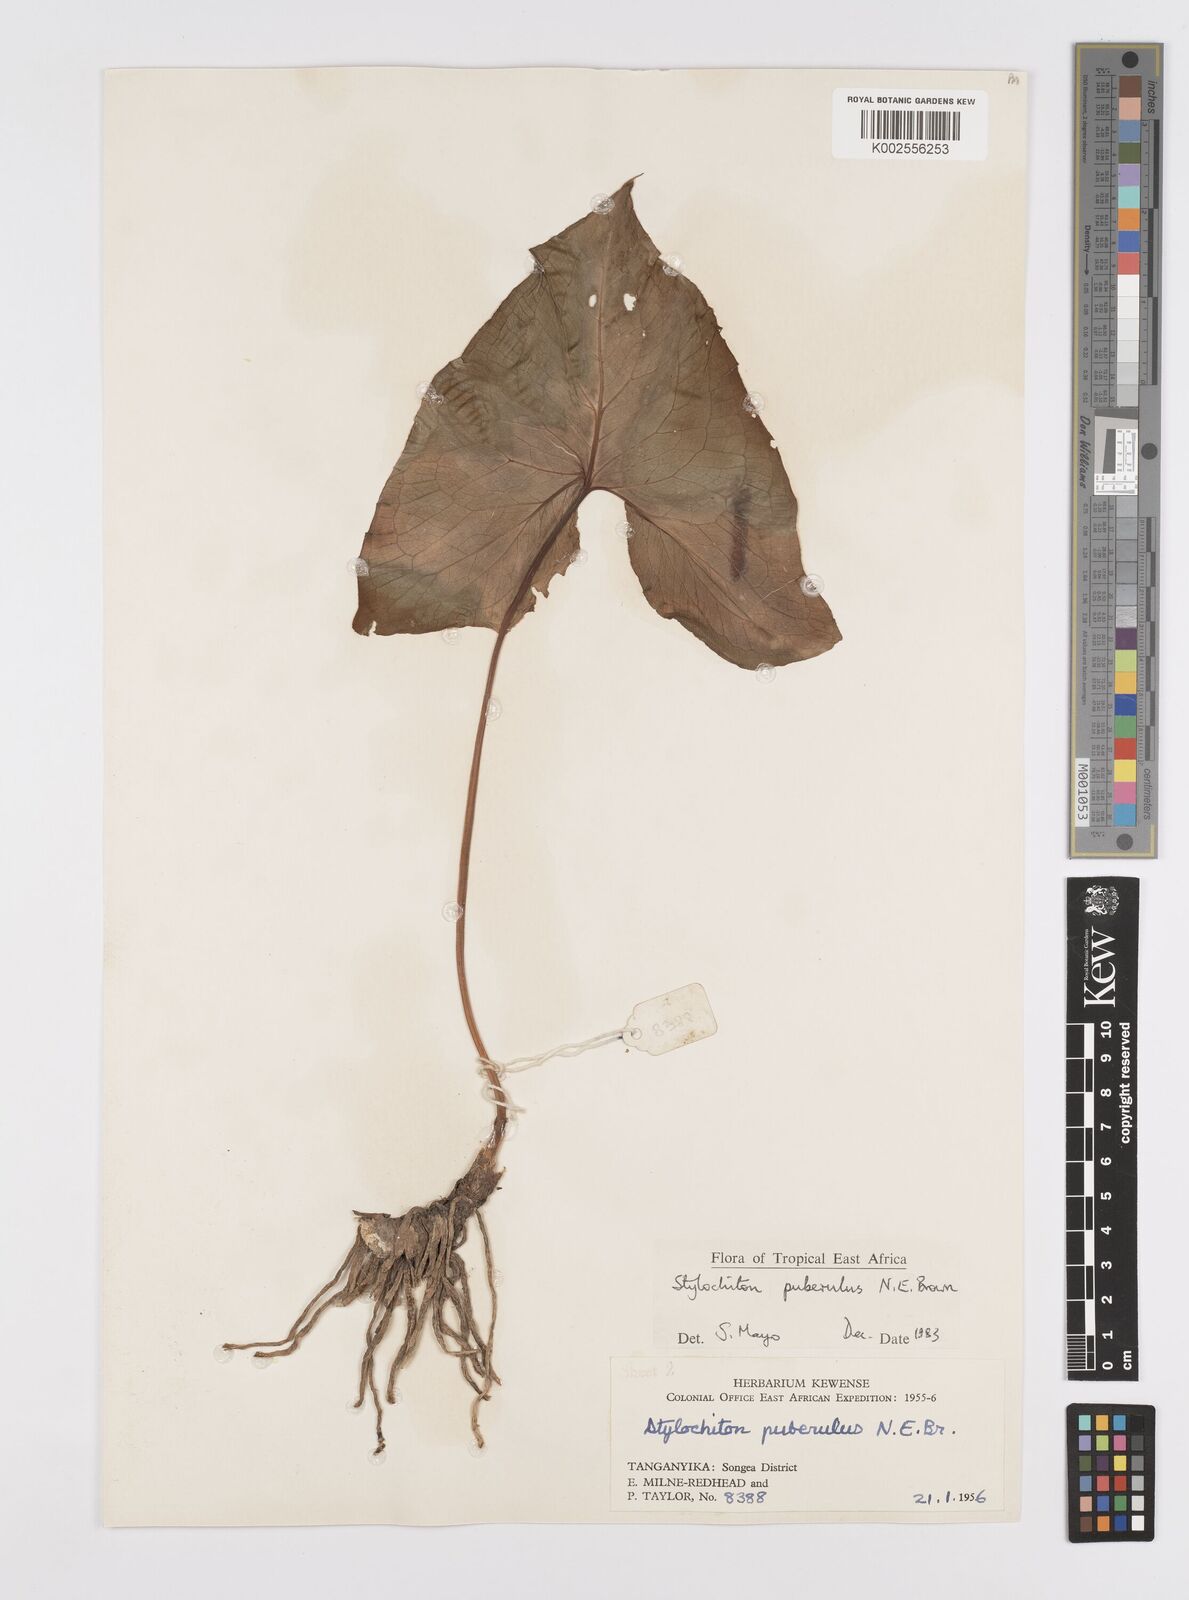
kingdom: Plantae
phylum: Tracheophyta
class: Liliopsida
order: Alismatales
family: Araceae
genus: Stylochaeton
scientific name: Stylochaeton puberulum
